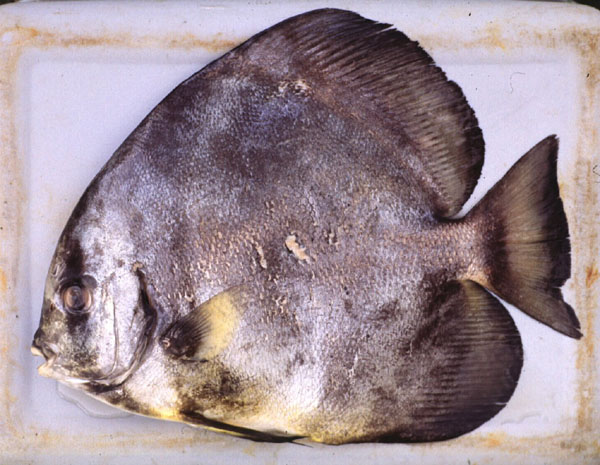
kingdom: Animalia
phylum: Chordata
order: Perciformes
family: Ephippidae
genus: Platax
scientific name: Platax orbicularis
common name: Batfish
